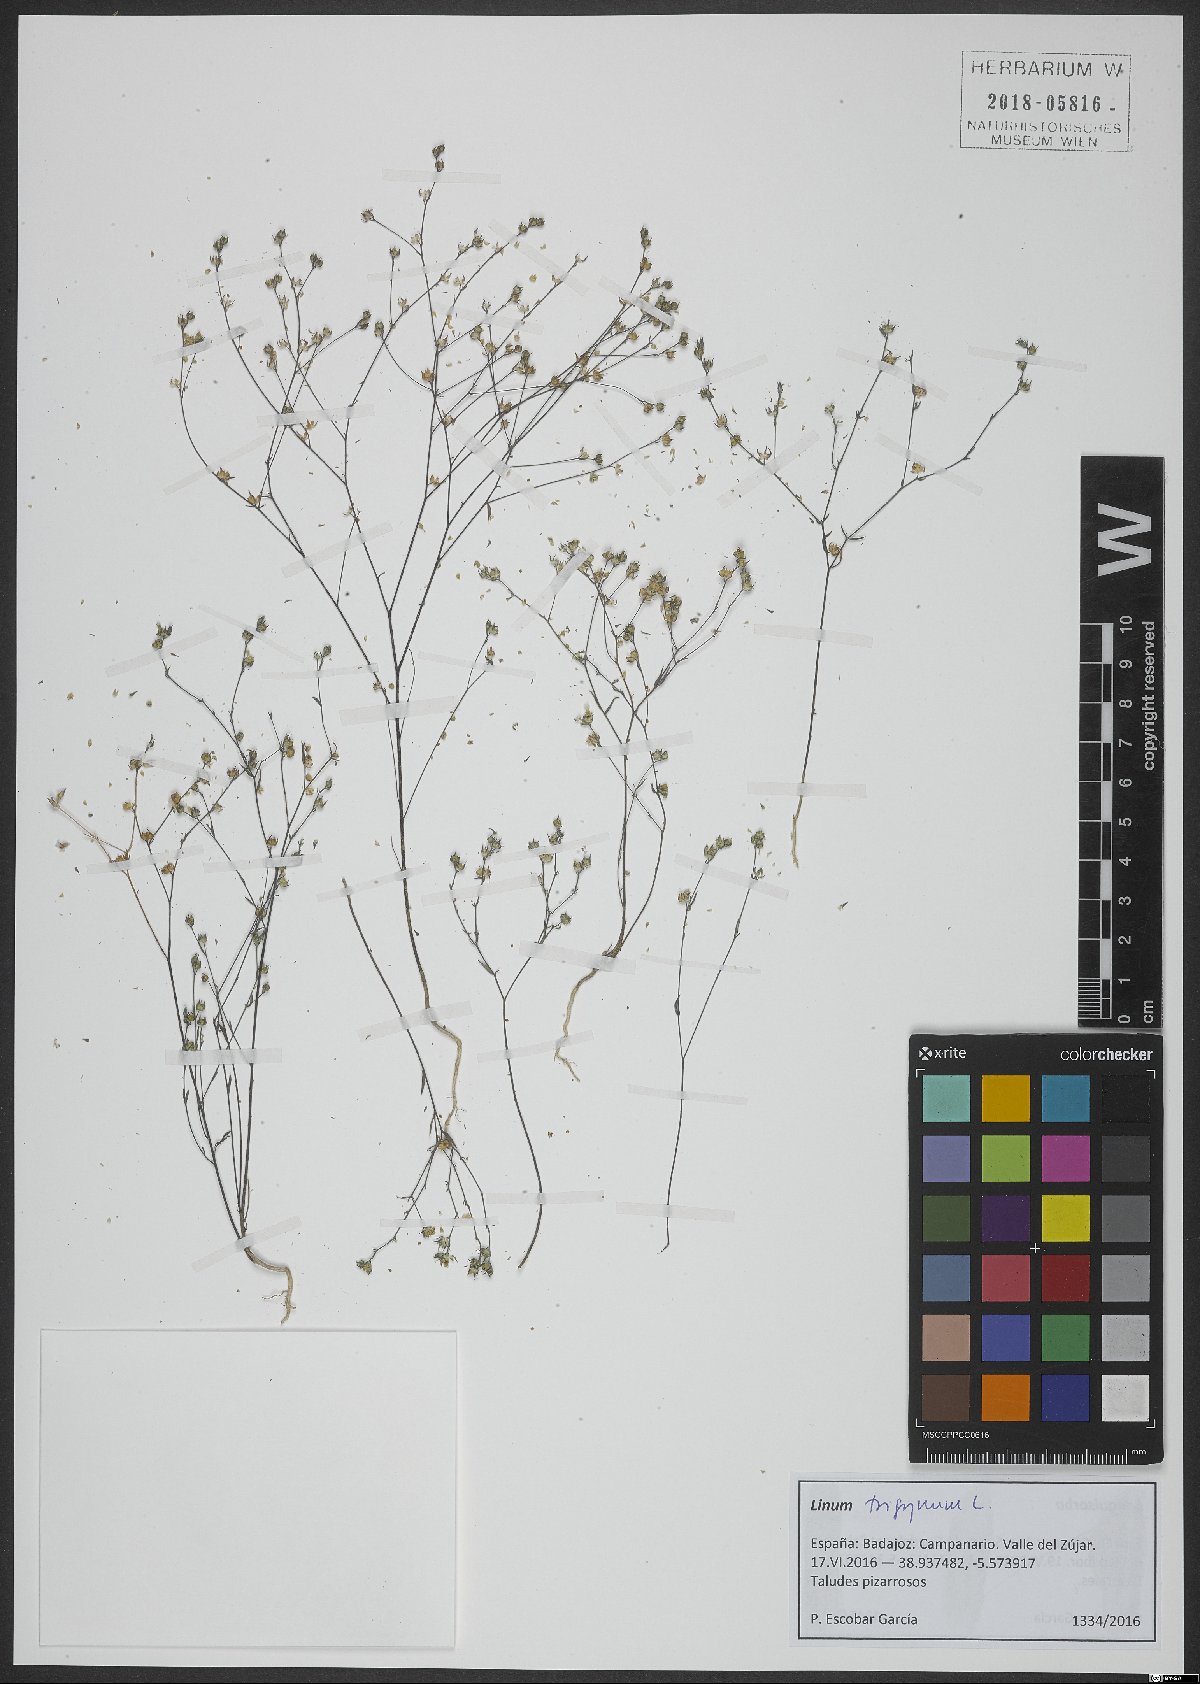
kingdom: Plantae
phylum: Tracheophyta
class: Magnoliopsida
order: Malpighiales
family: Linaceae
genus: Linum
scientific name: Linum trigynum
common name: French flax
